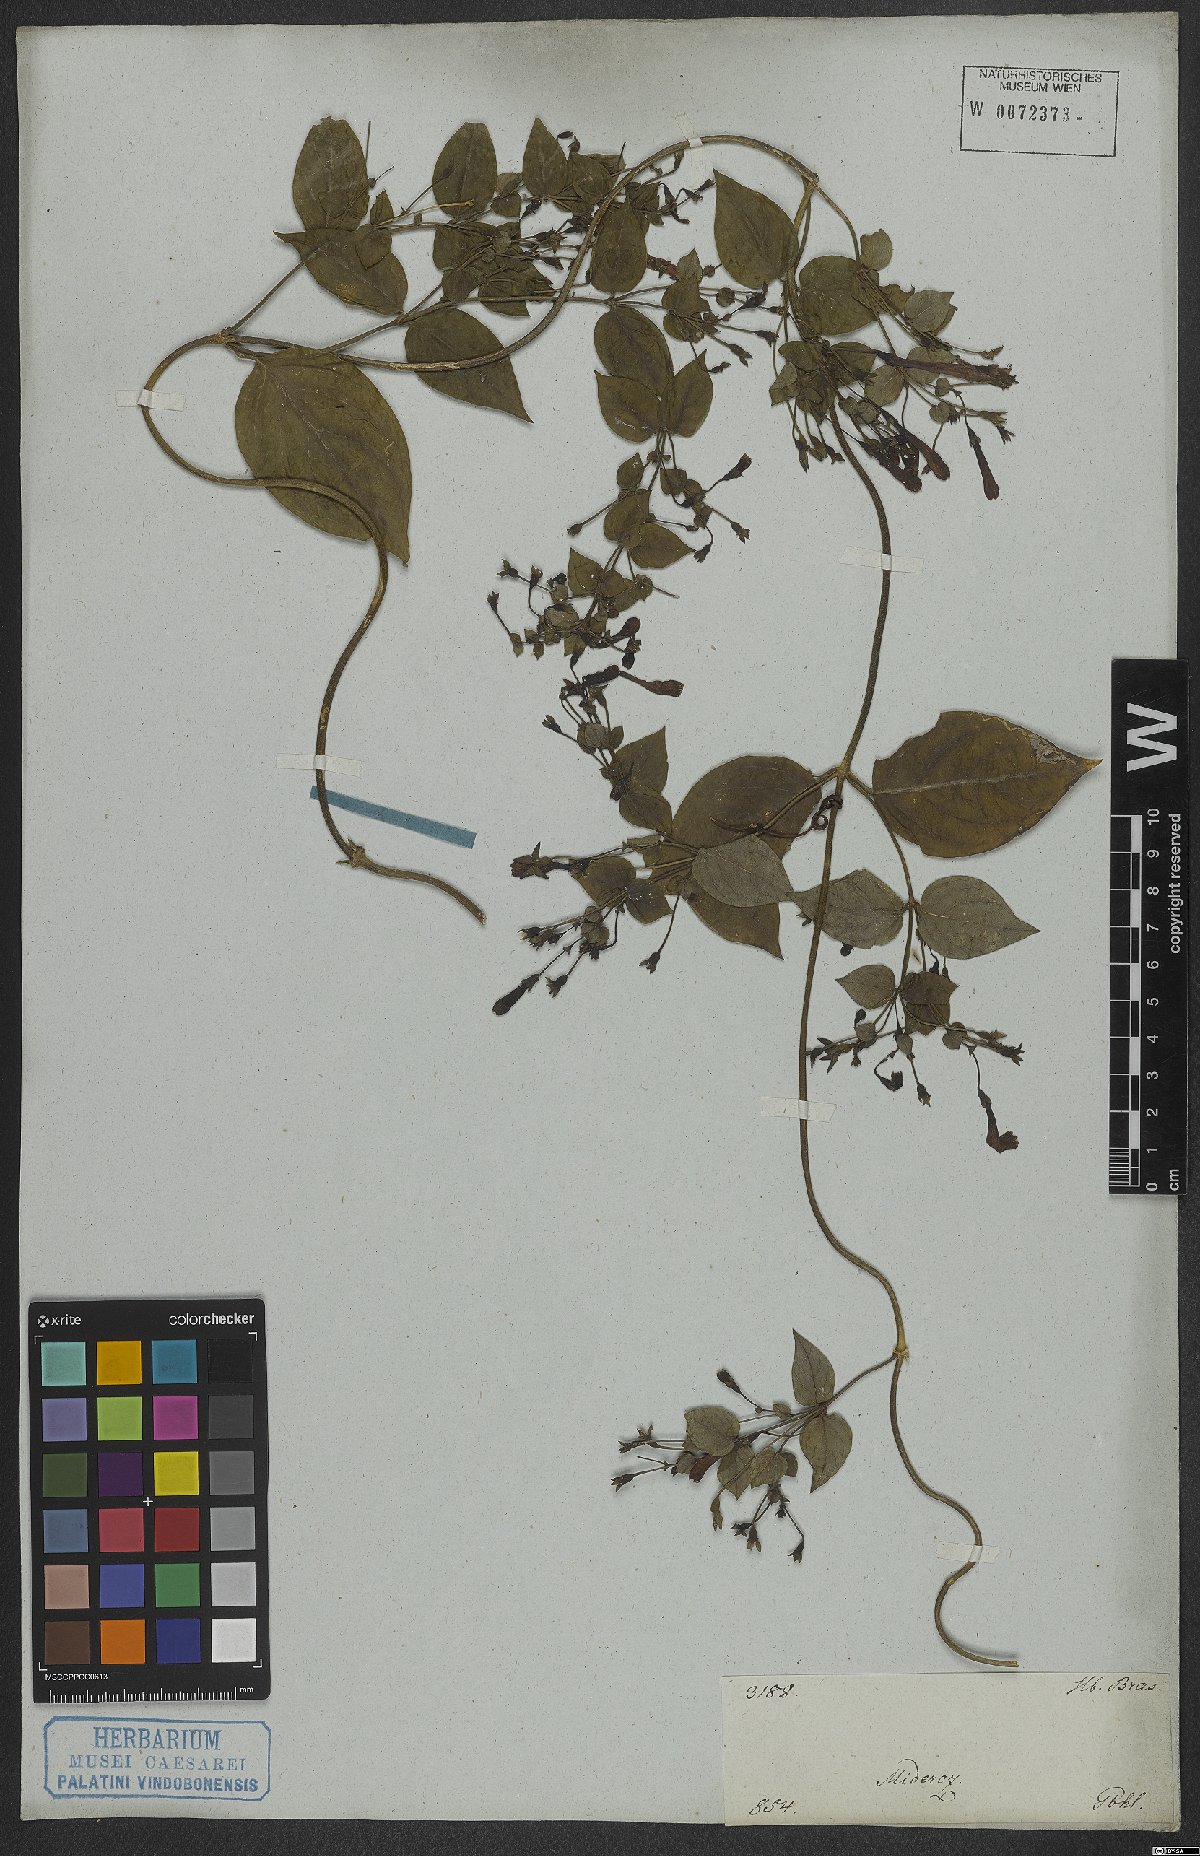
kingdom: Plantae
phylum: Tracheophyta
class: Magnoliopsida
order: Gentianales
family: Rubiaceae
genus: Manettia
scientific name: Manettia
